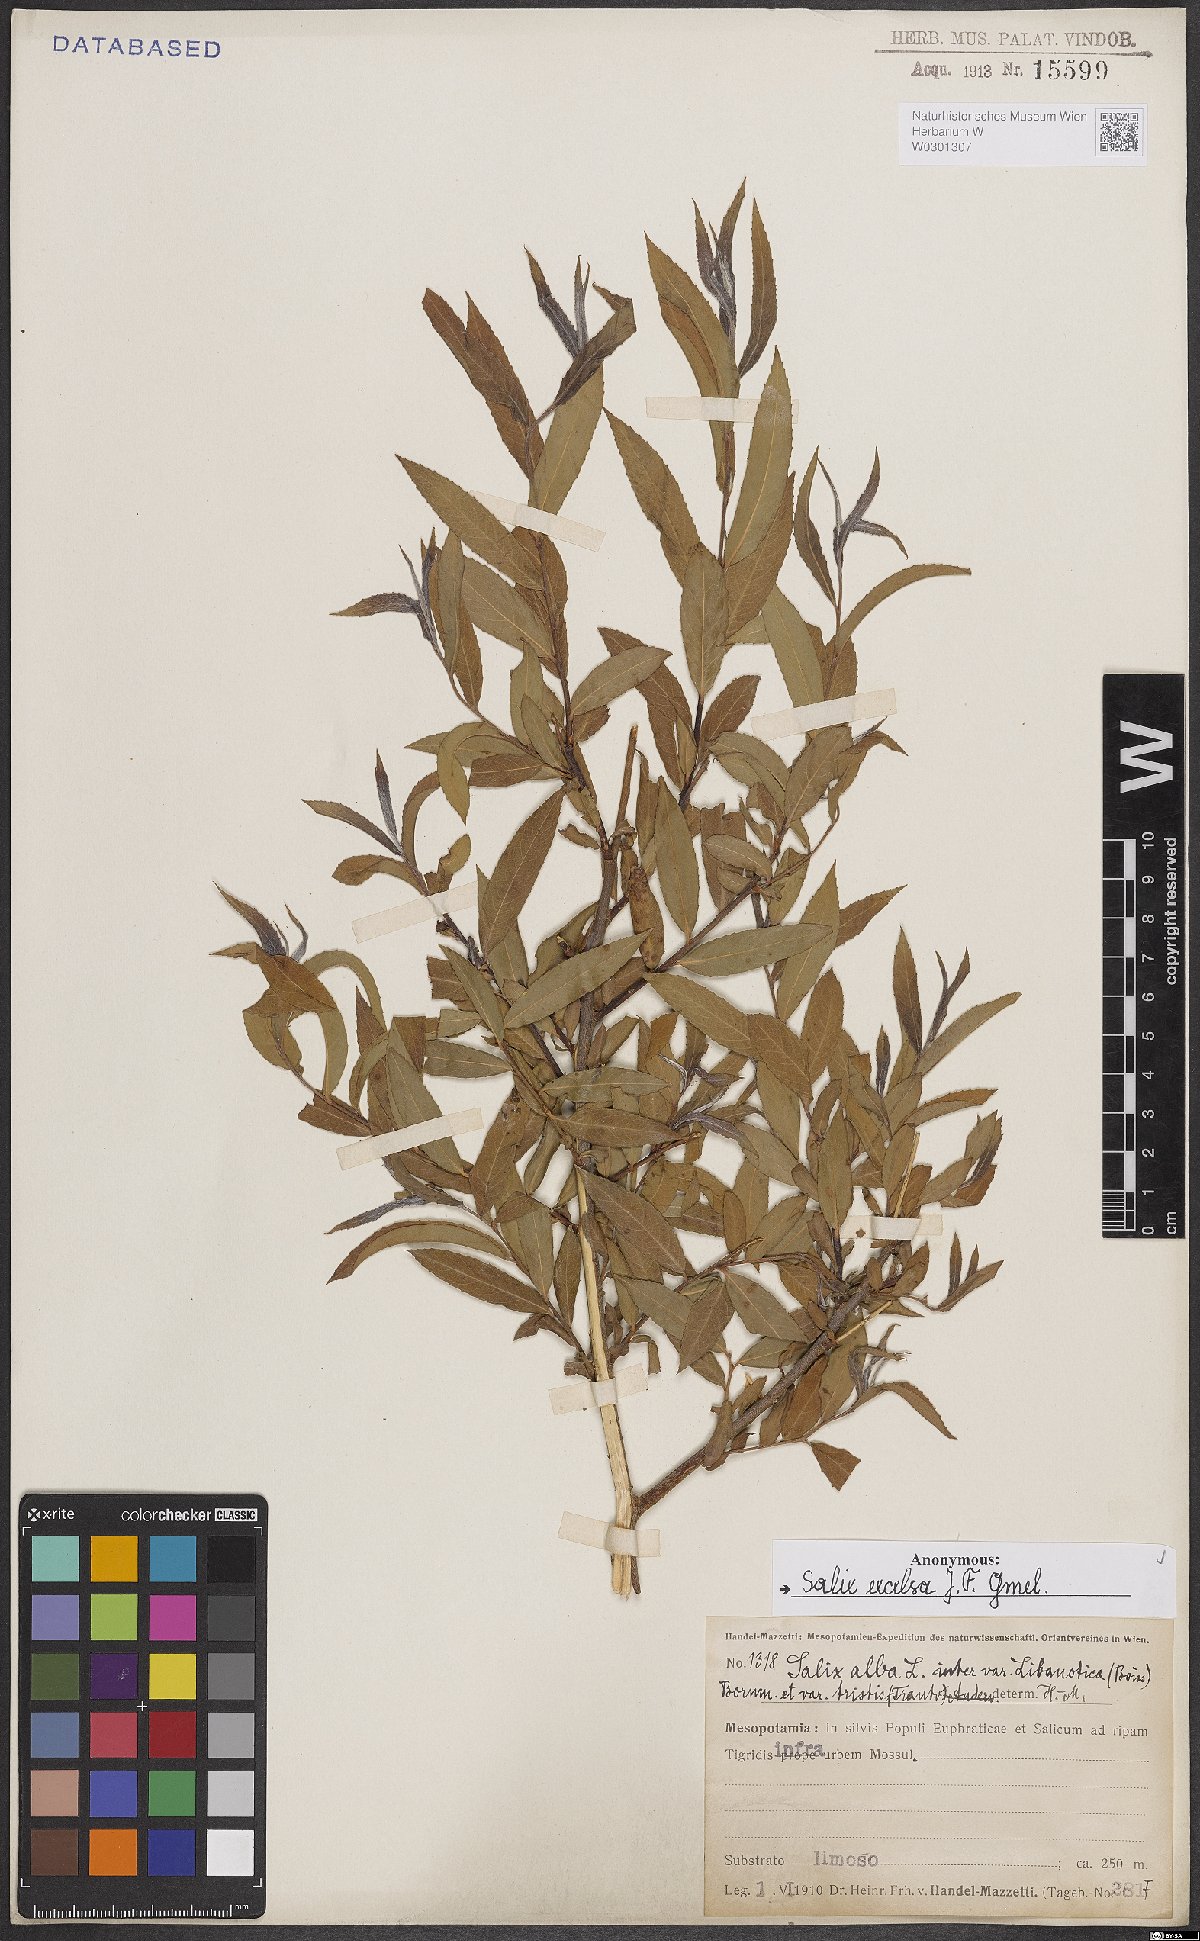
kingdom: Plantae
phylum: Tracheophyta
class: Magnoliopsida
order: Malpighiales
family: Salicaceae
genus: Salix
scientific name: Salix excelsa
